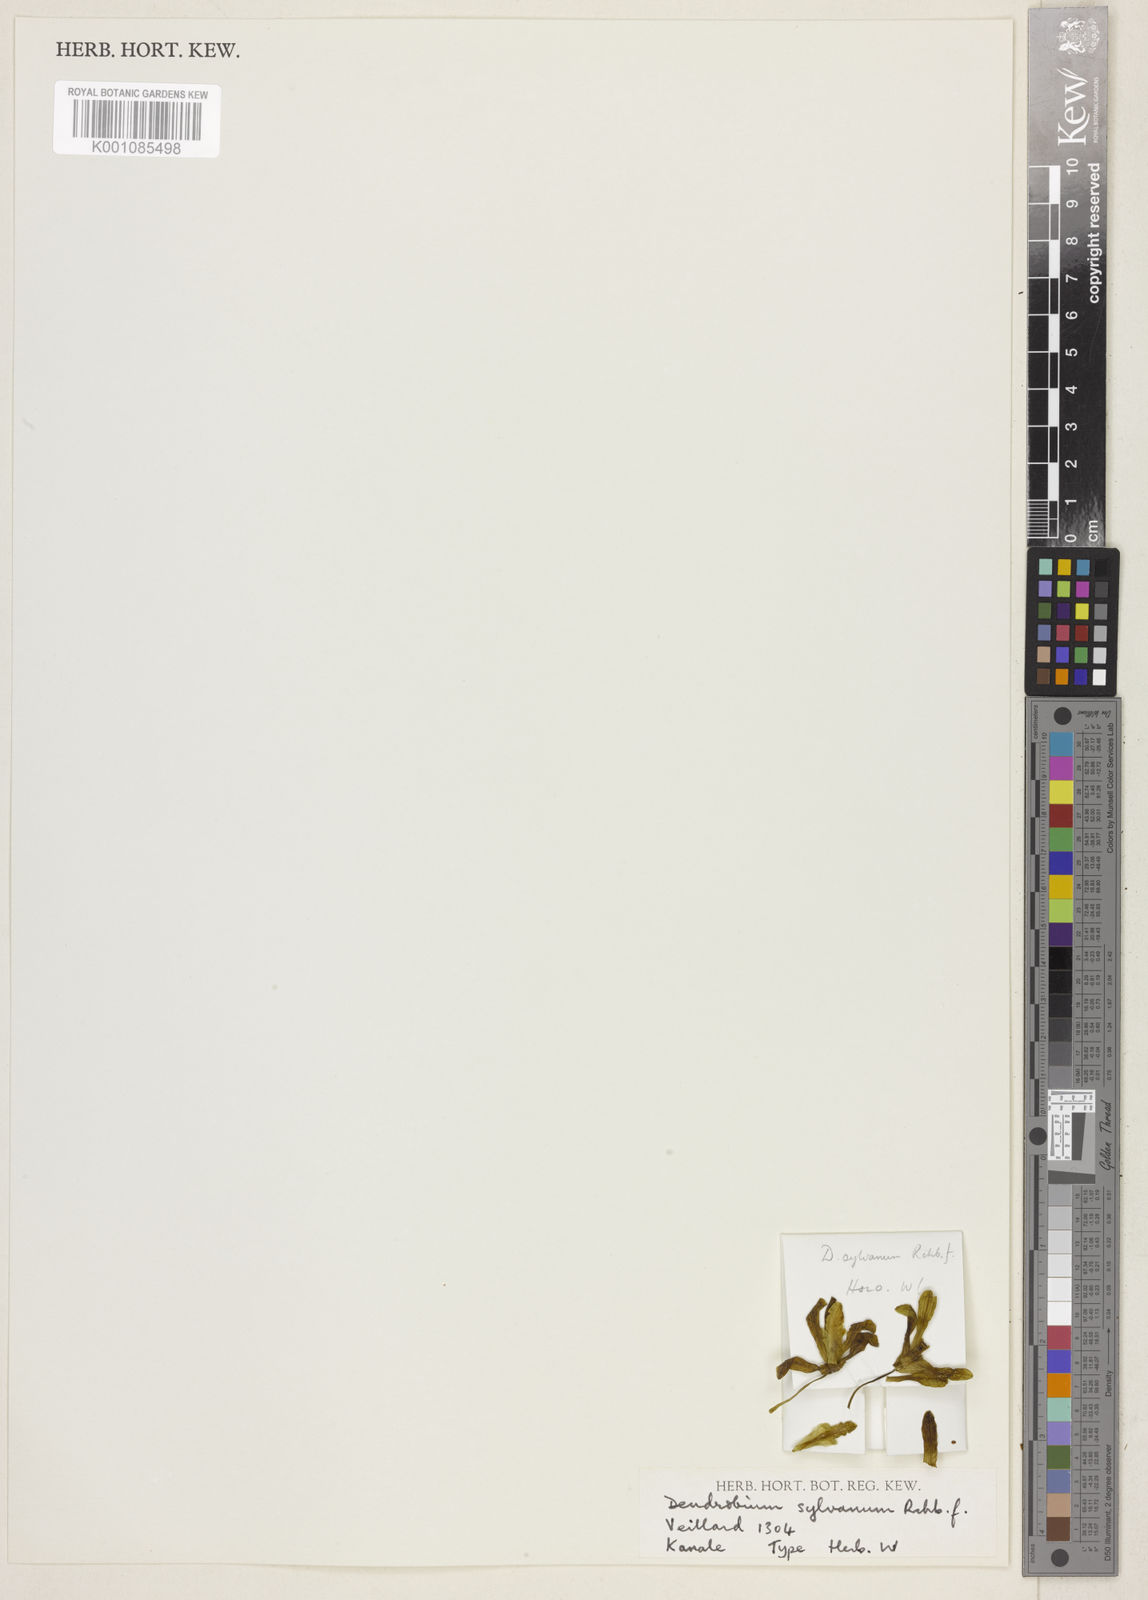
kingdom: Plantae
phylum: Tracheophyta
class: Liliopsida
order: Asparagales
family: Orchidaceae
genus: Dendrobium
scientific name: Dendrobium sylvanum
